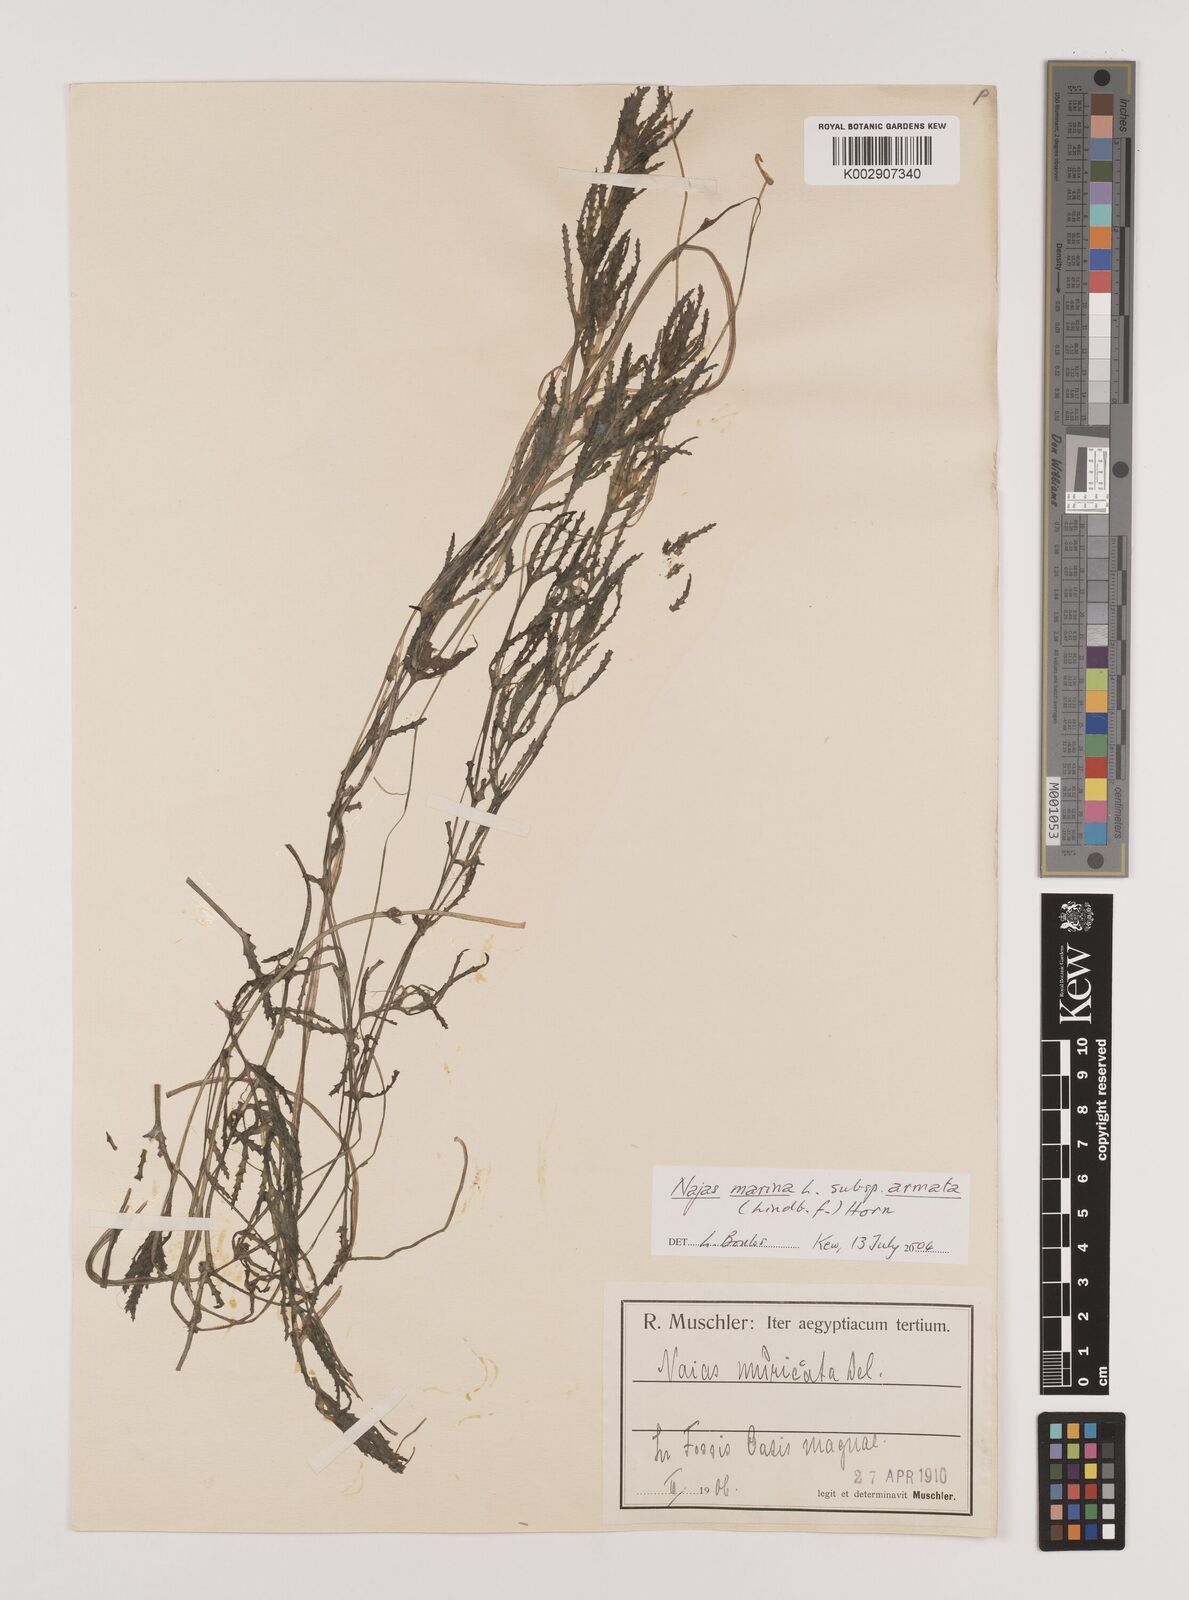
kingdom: Plantae
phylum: Tracheophyta
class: Liliopsida
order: Alismatales
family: Hydrocharitaceae
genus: Najas
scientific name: Najas marina
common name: Holly-leaved naiad
